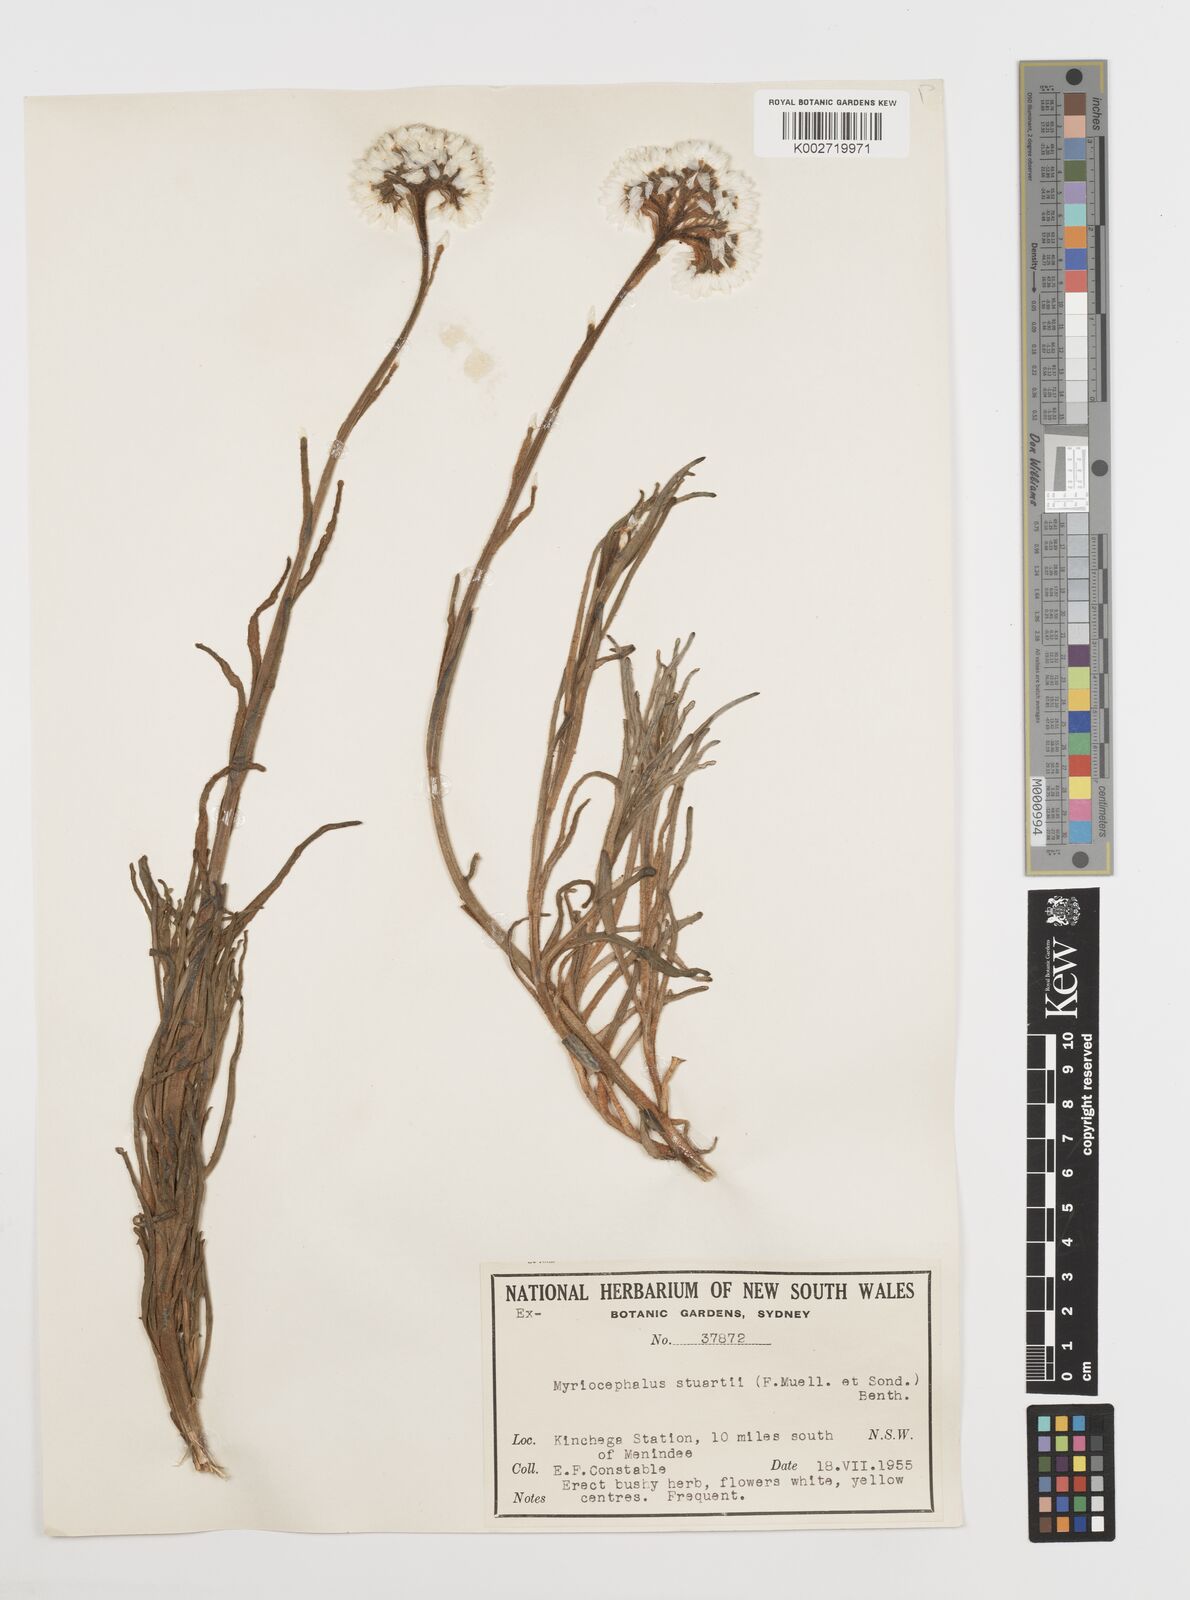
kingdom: Plantae
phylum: Tracheophyta
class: Magnoliopsida
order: Asterales
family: Asteraceae
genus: Polycalymma
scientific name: Polycalymma stuartii
